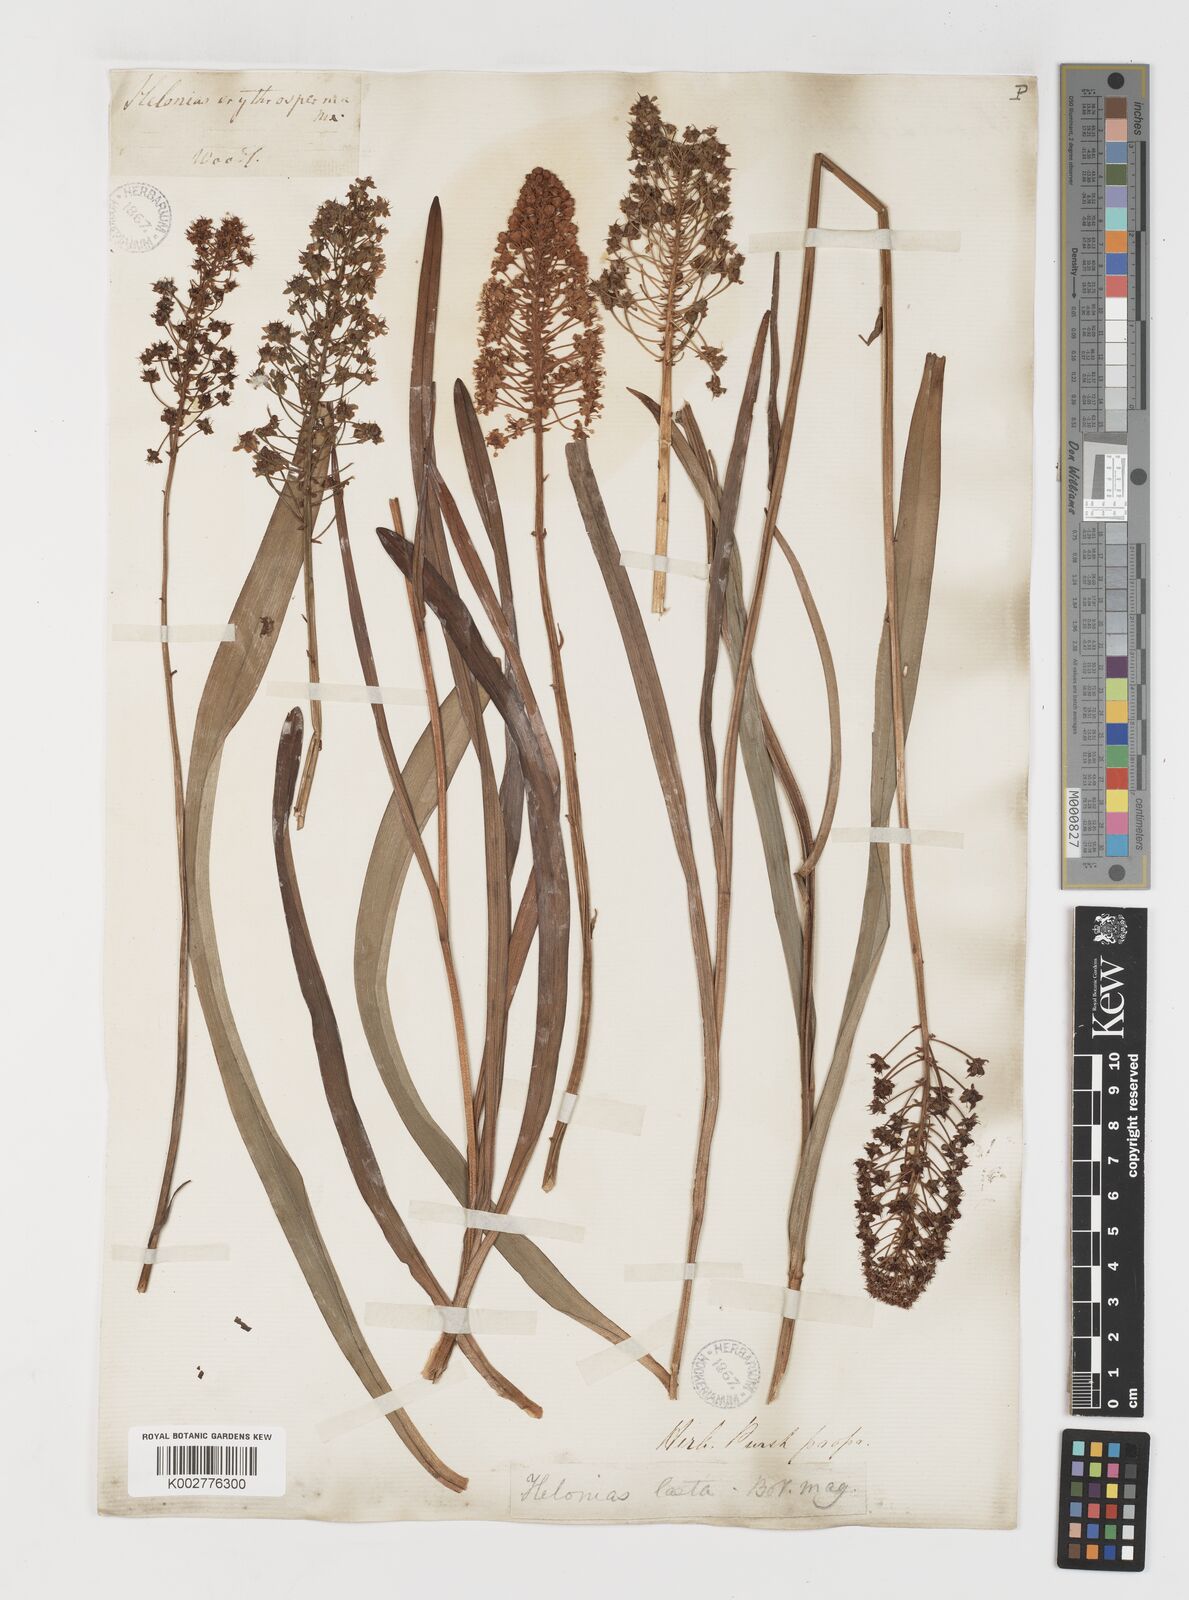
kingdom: Plantae
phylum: Tracheophyta
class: Liliopsida
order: Liliales
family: Melanthiaceae
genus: Amianthium
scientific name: Amianthium muscitoxicum
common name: Fly-poison
